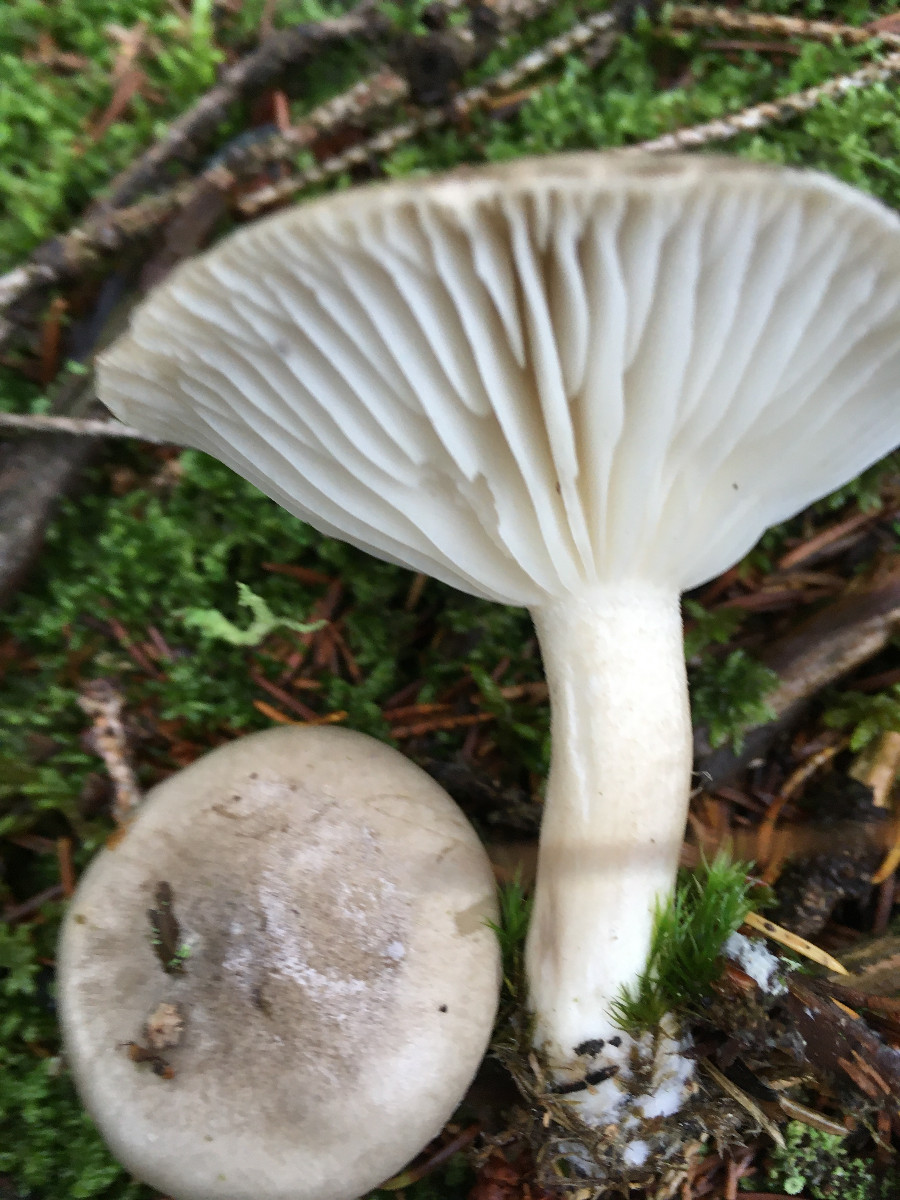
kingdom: Fungi
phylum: Basidiomycota
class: Agaricomycetes
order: Agaricales
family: Hygrophoraceae
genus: Hygrophorus
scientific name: Hygrophorus agathosmus
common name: vellugtende sneglehat
